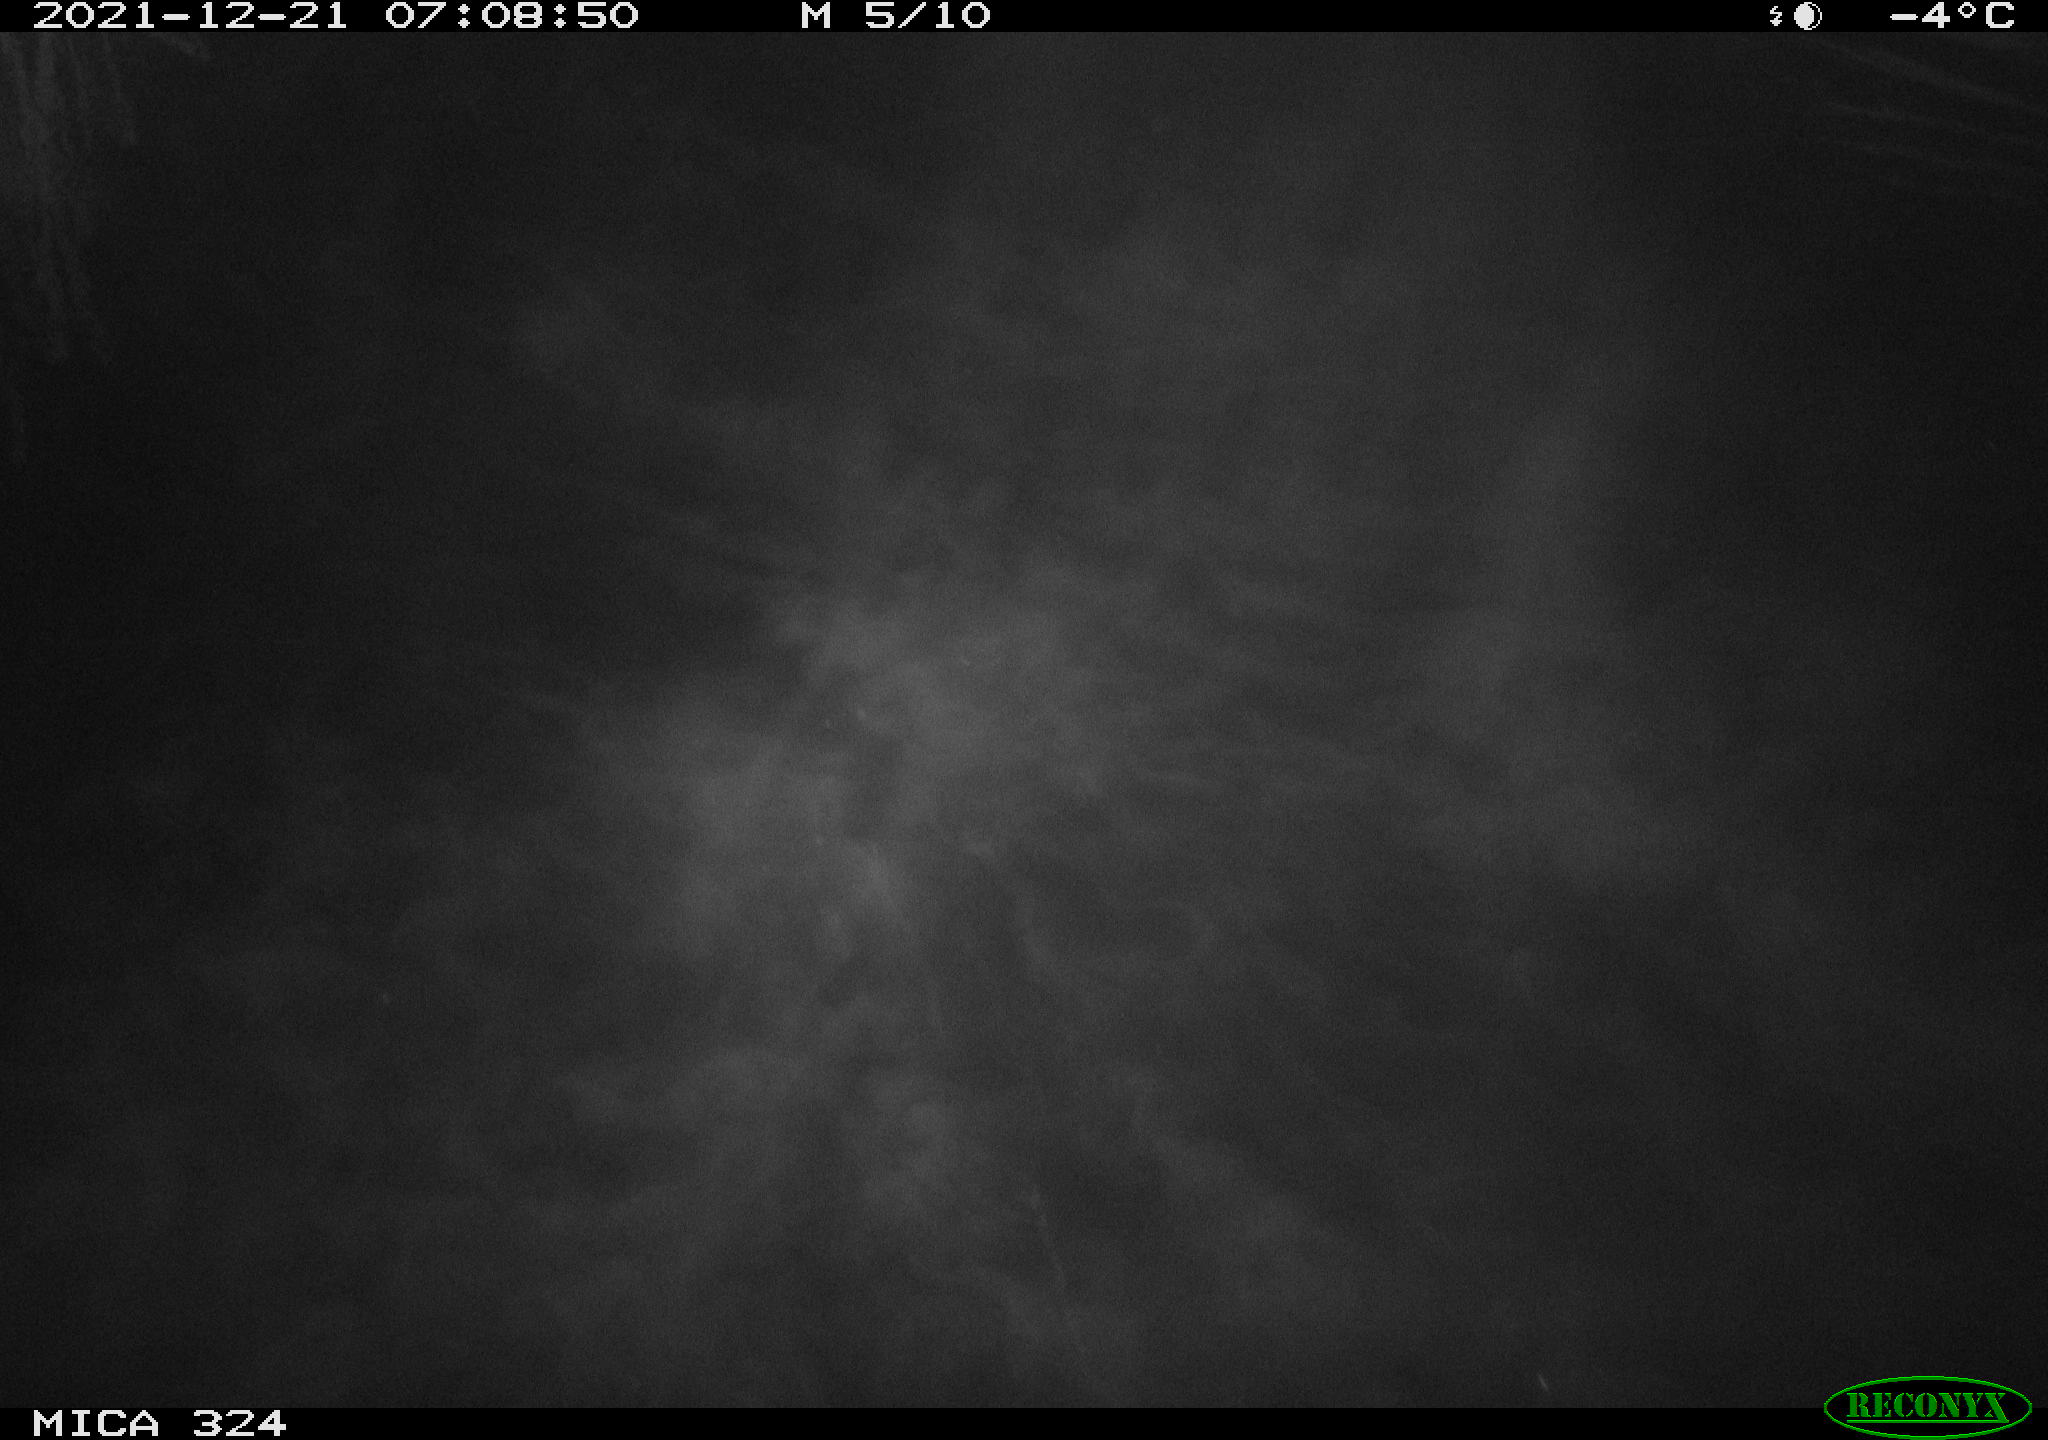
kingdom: Animalia
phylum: Chordata
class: Mammalia
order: Rodentia
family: Cricetidae
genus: Ondatra
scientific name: Ondatra zibethicus
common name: Muskrat
